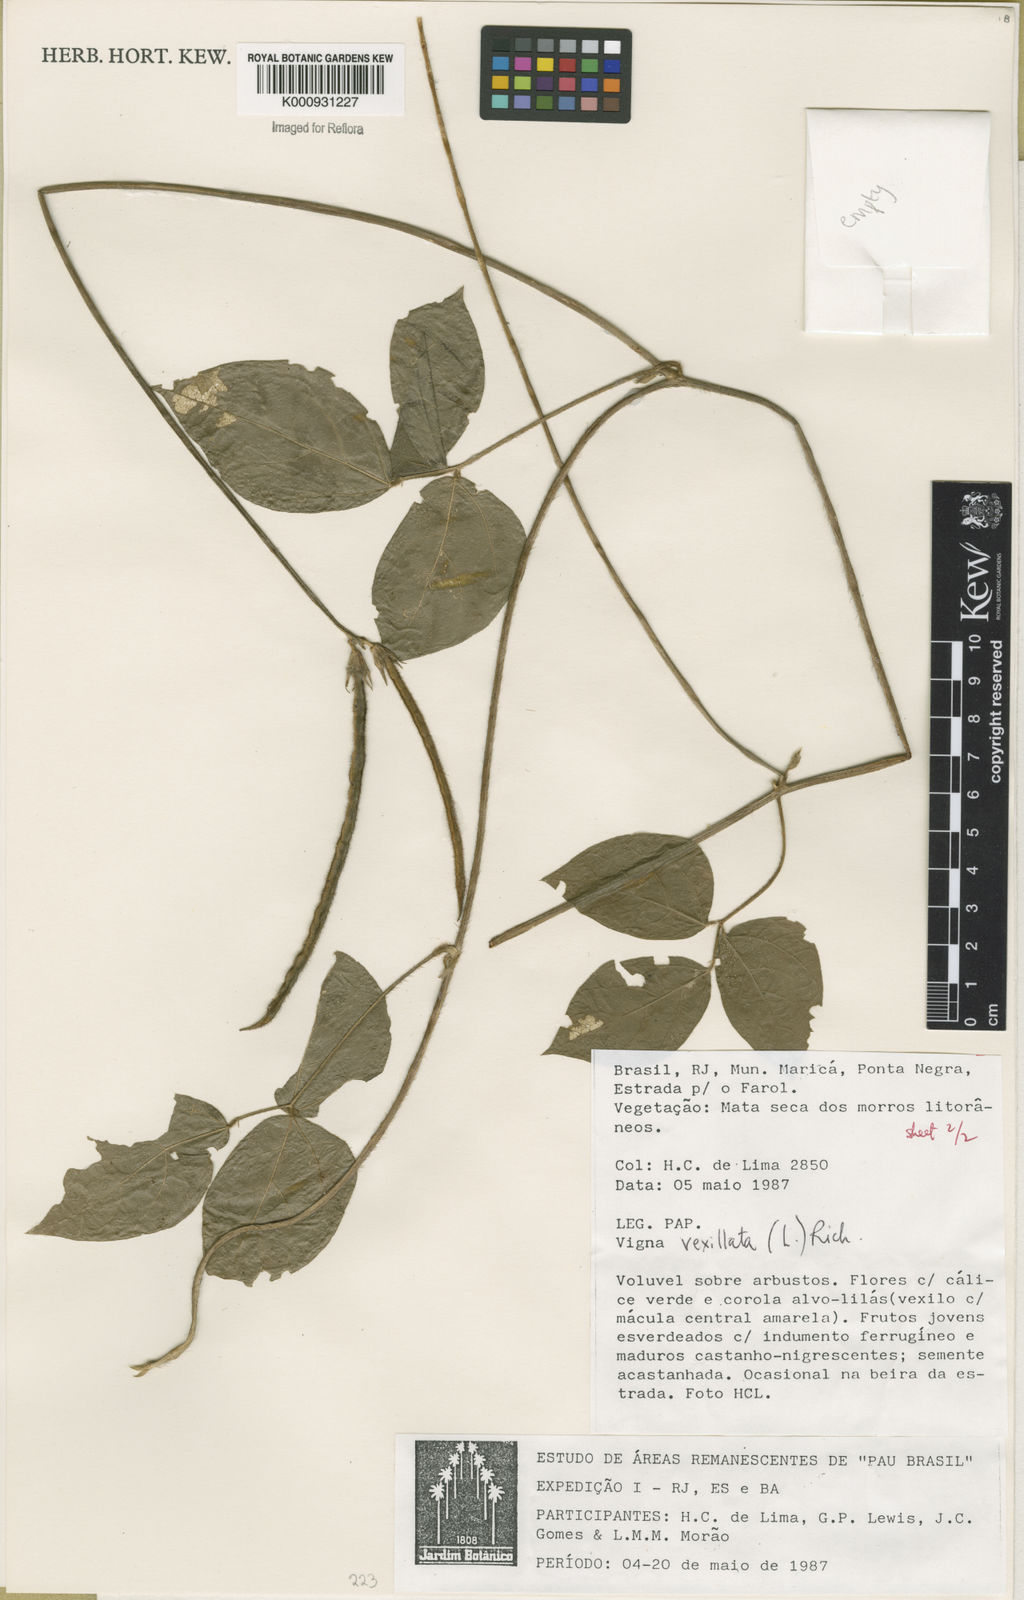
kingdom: Plantae
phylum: Tracheophyta
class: Magnoliopsida
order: Fabales
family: Fabaceae
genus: Vigna
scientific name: Vigna vexillata
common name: Zombi pea
